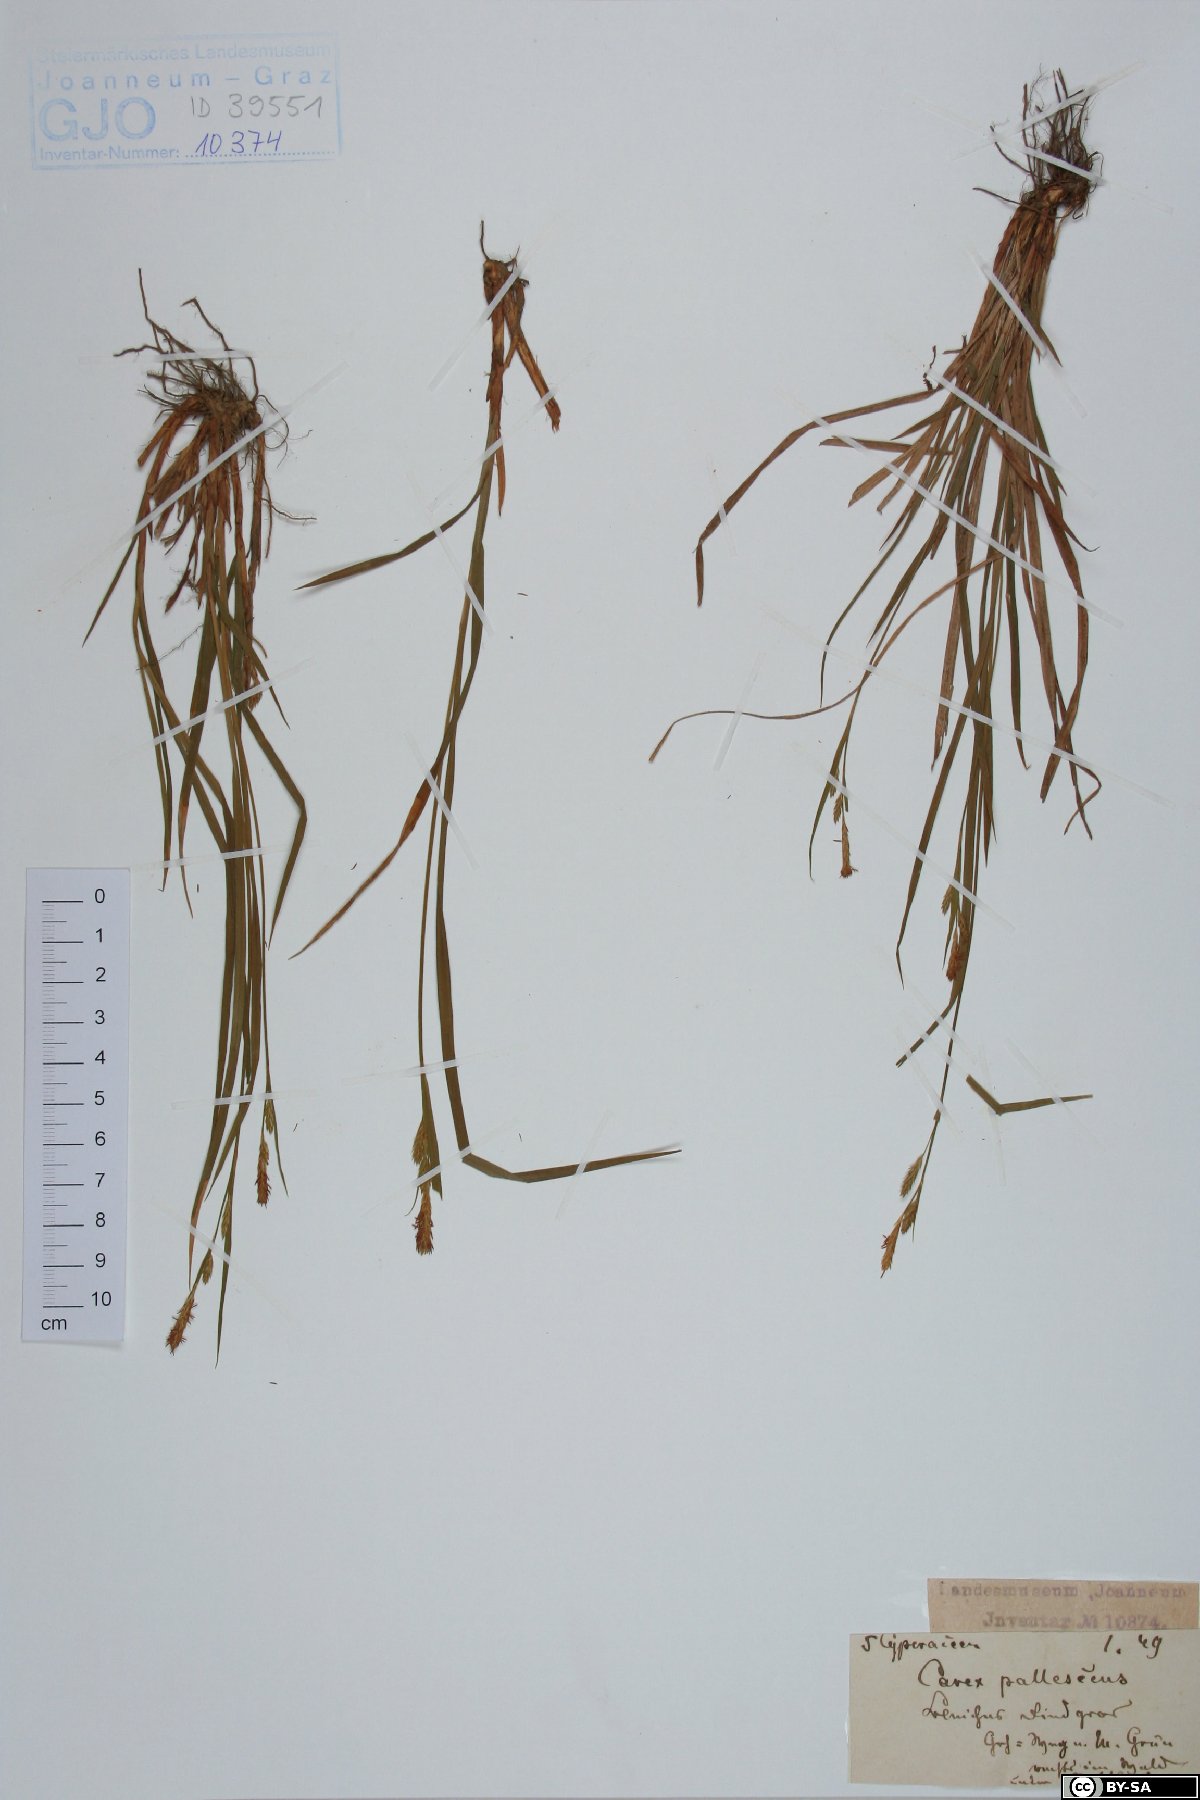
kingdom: Plantae
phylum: Tracheophyta
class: Liliopsida
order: Poales
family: Cyperaceae
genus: Carex
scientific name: Carex pallescens
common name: Pale sedge
